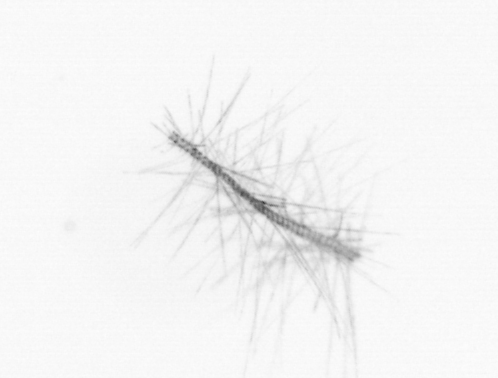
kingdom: Chromista
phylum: Ochrophyta
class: Bacillariophyceae
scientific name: Bacillariophyceae
